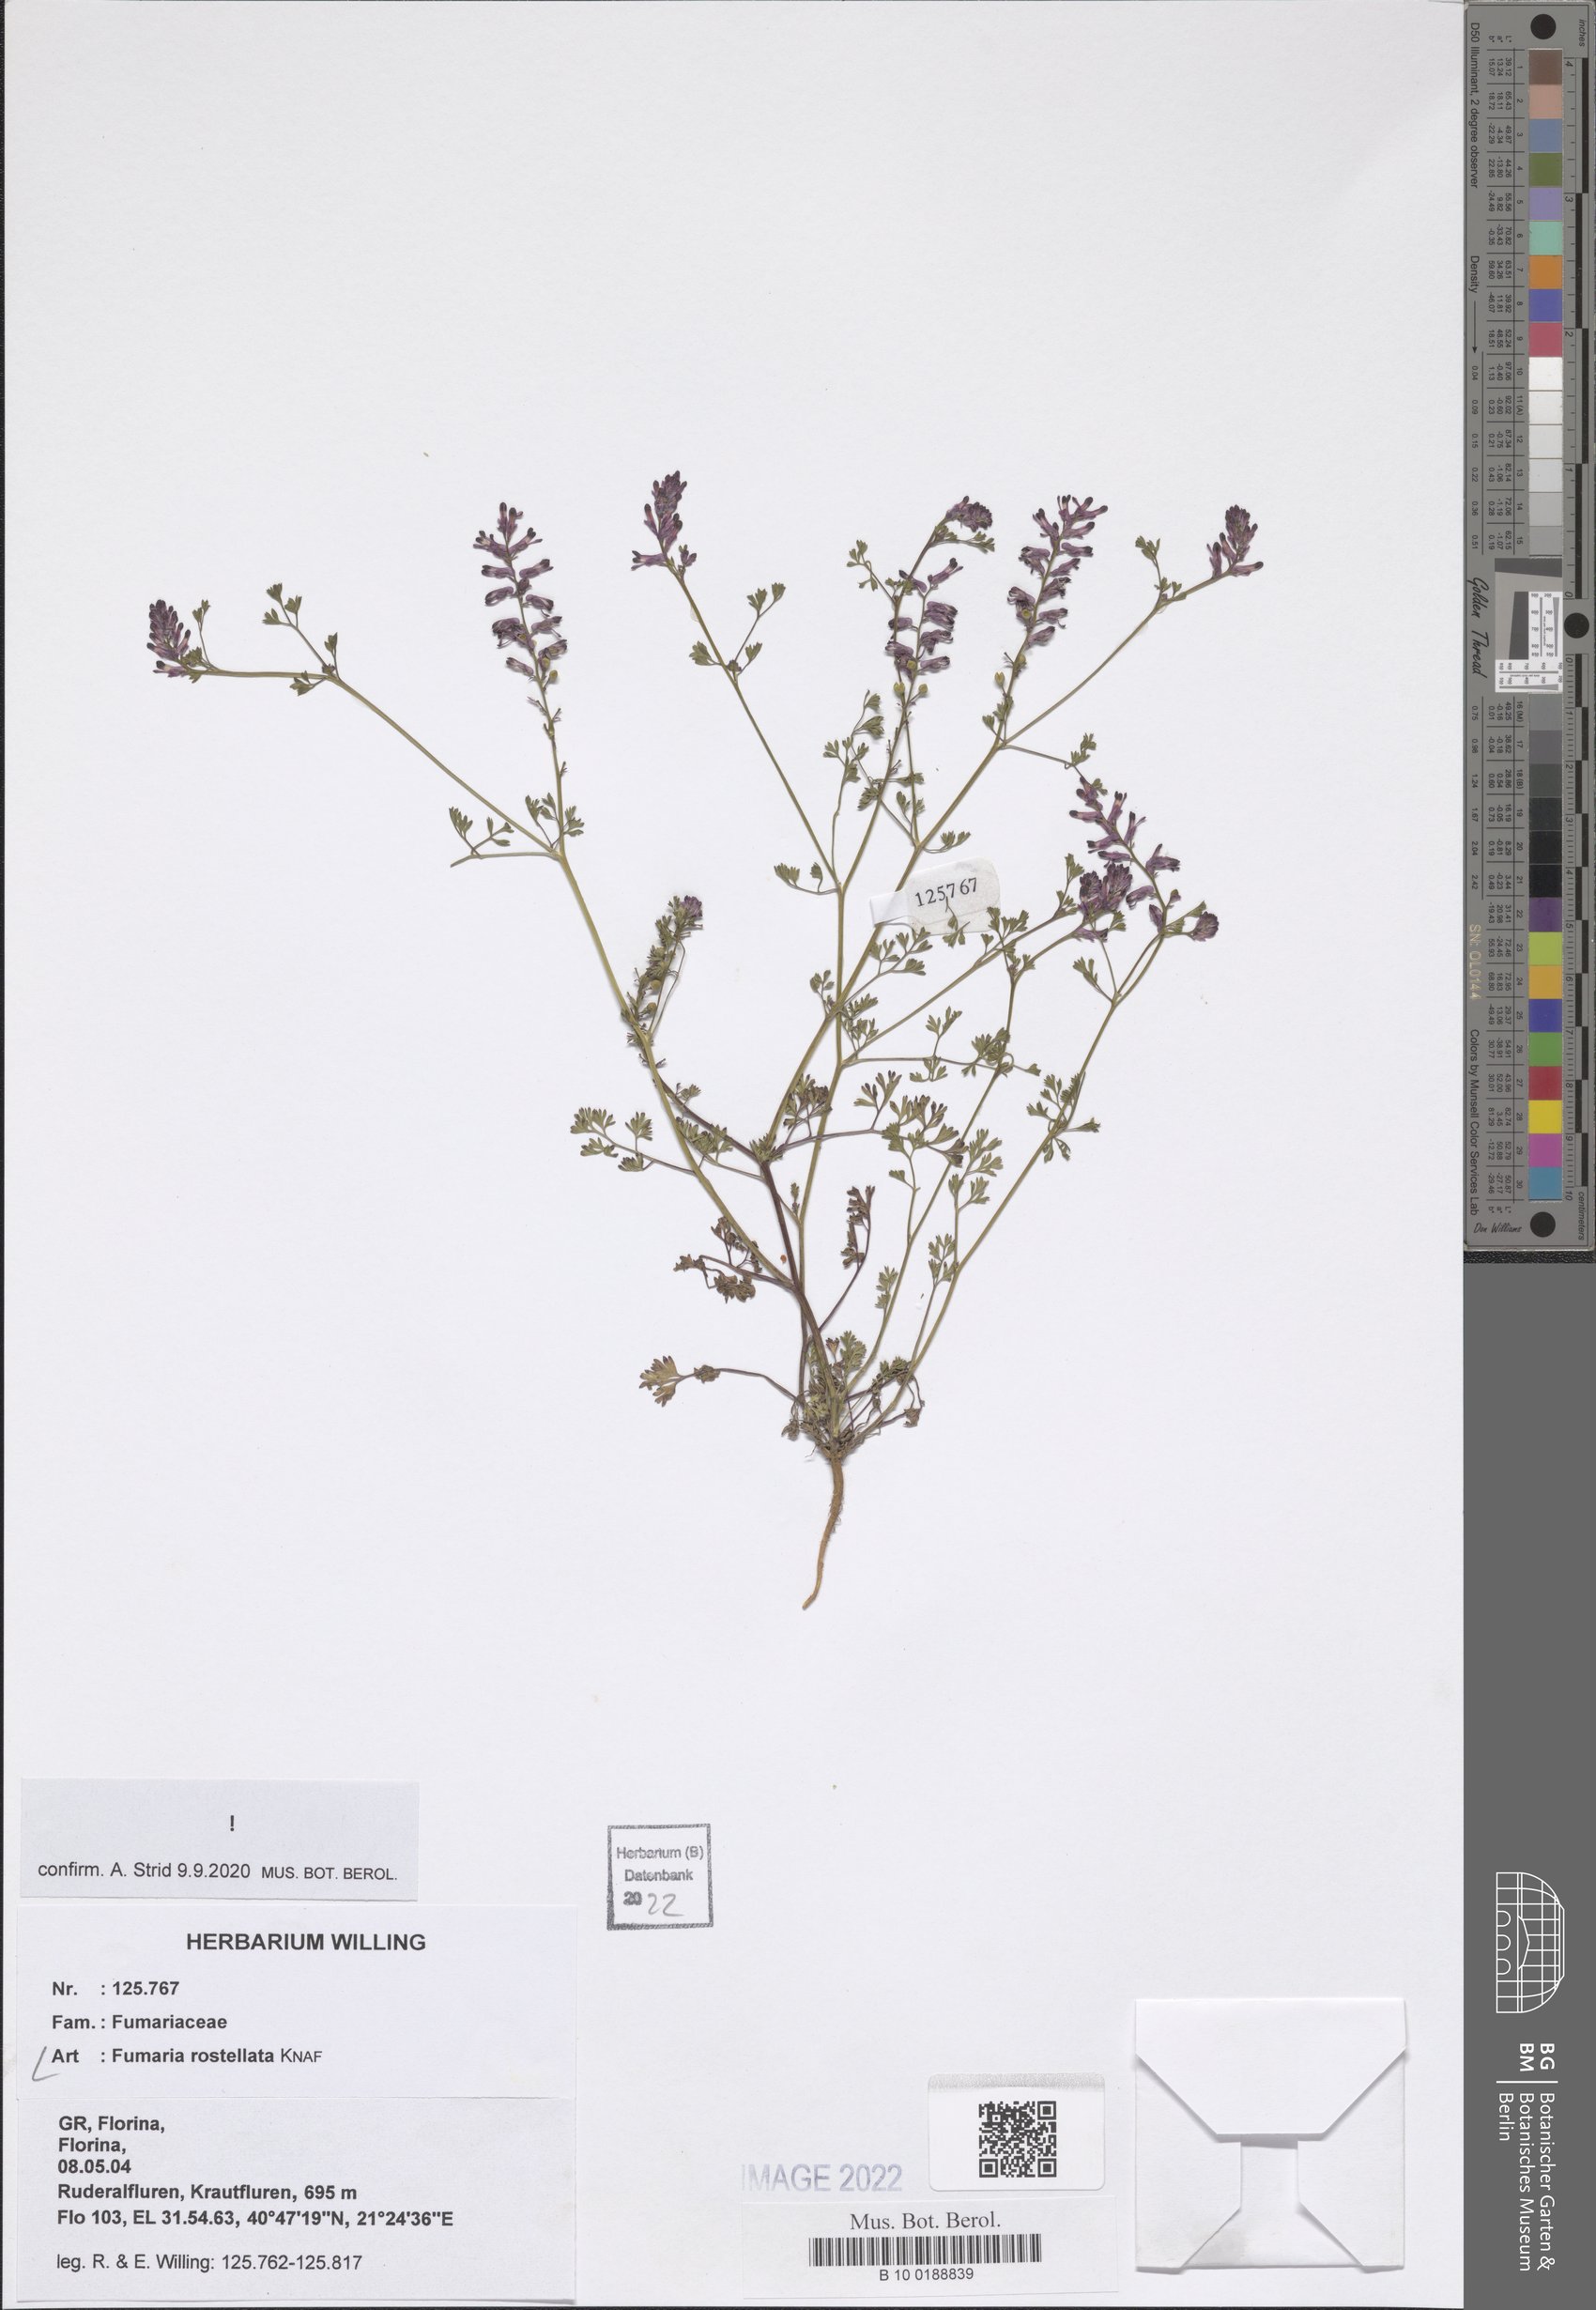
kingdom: Plantae
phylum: Tracheophyta
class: Magnoliopsida
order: Ranunculales
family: Papaveraceae
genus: Fumaria
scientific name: Fumaria rostellata
